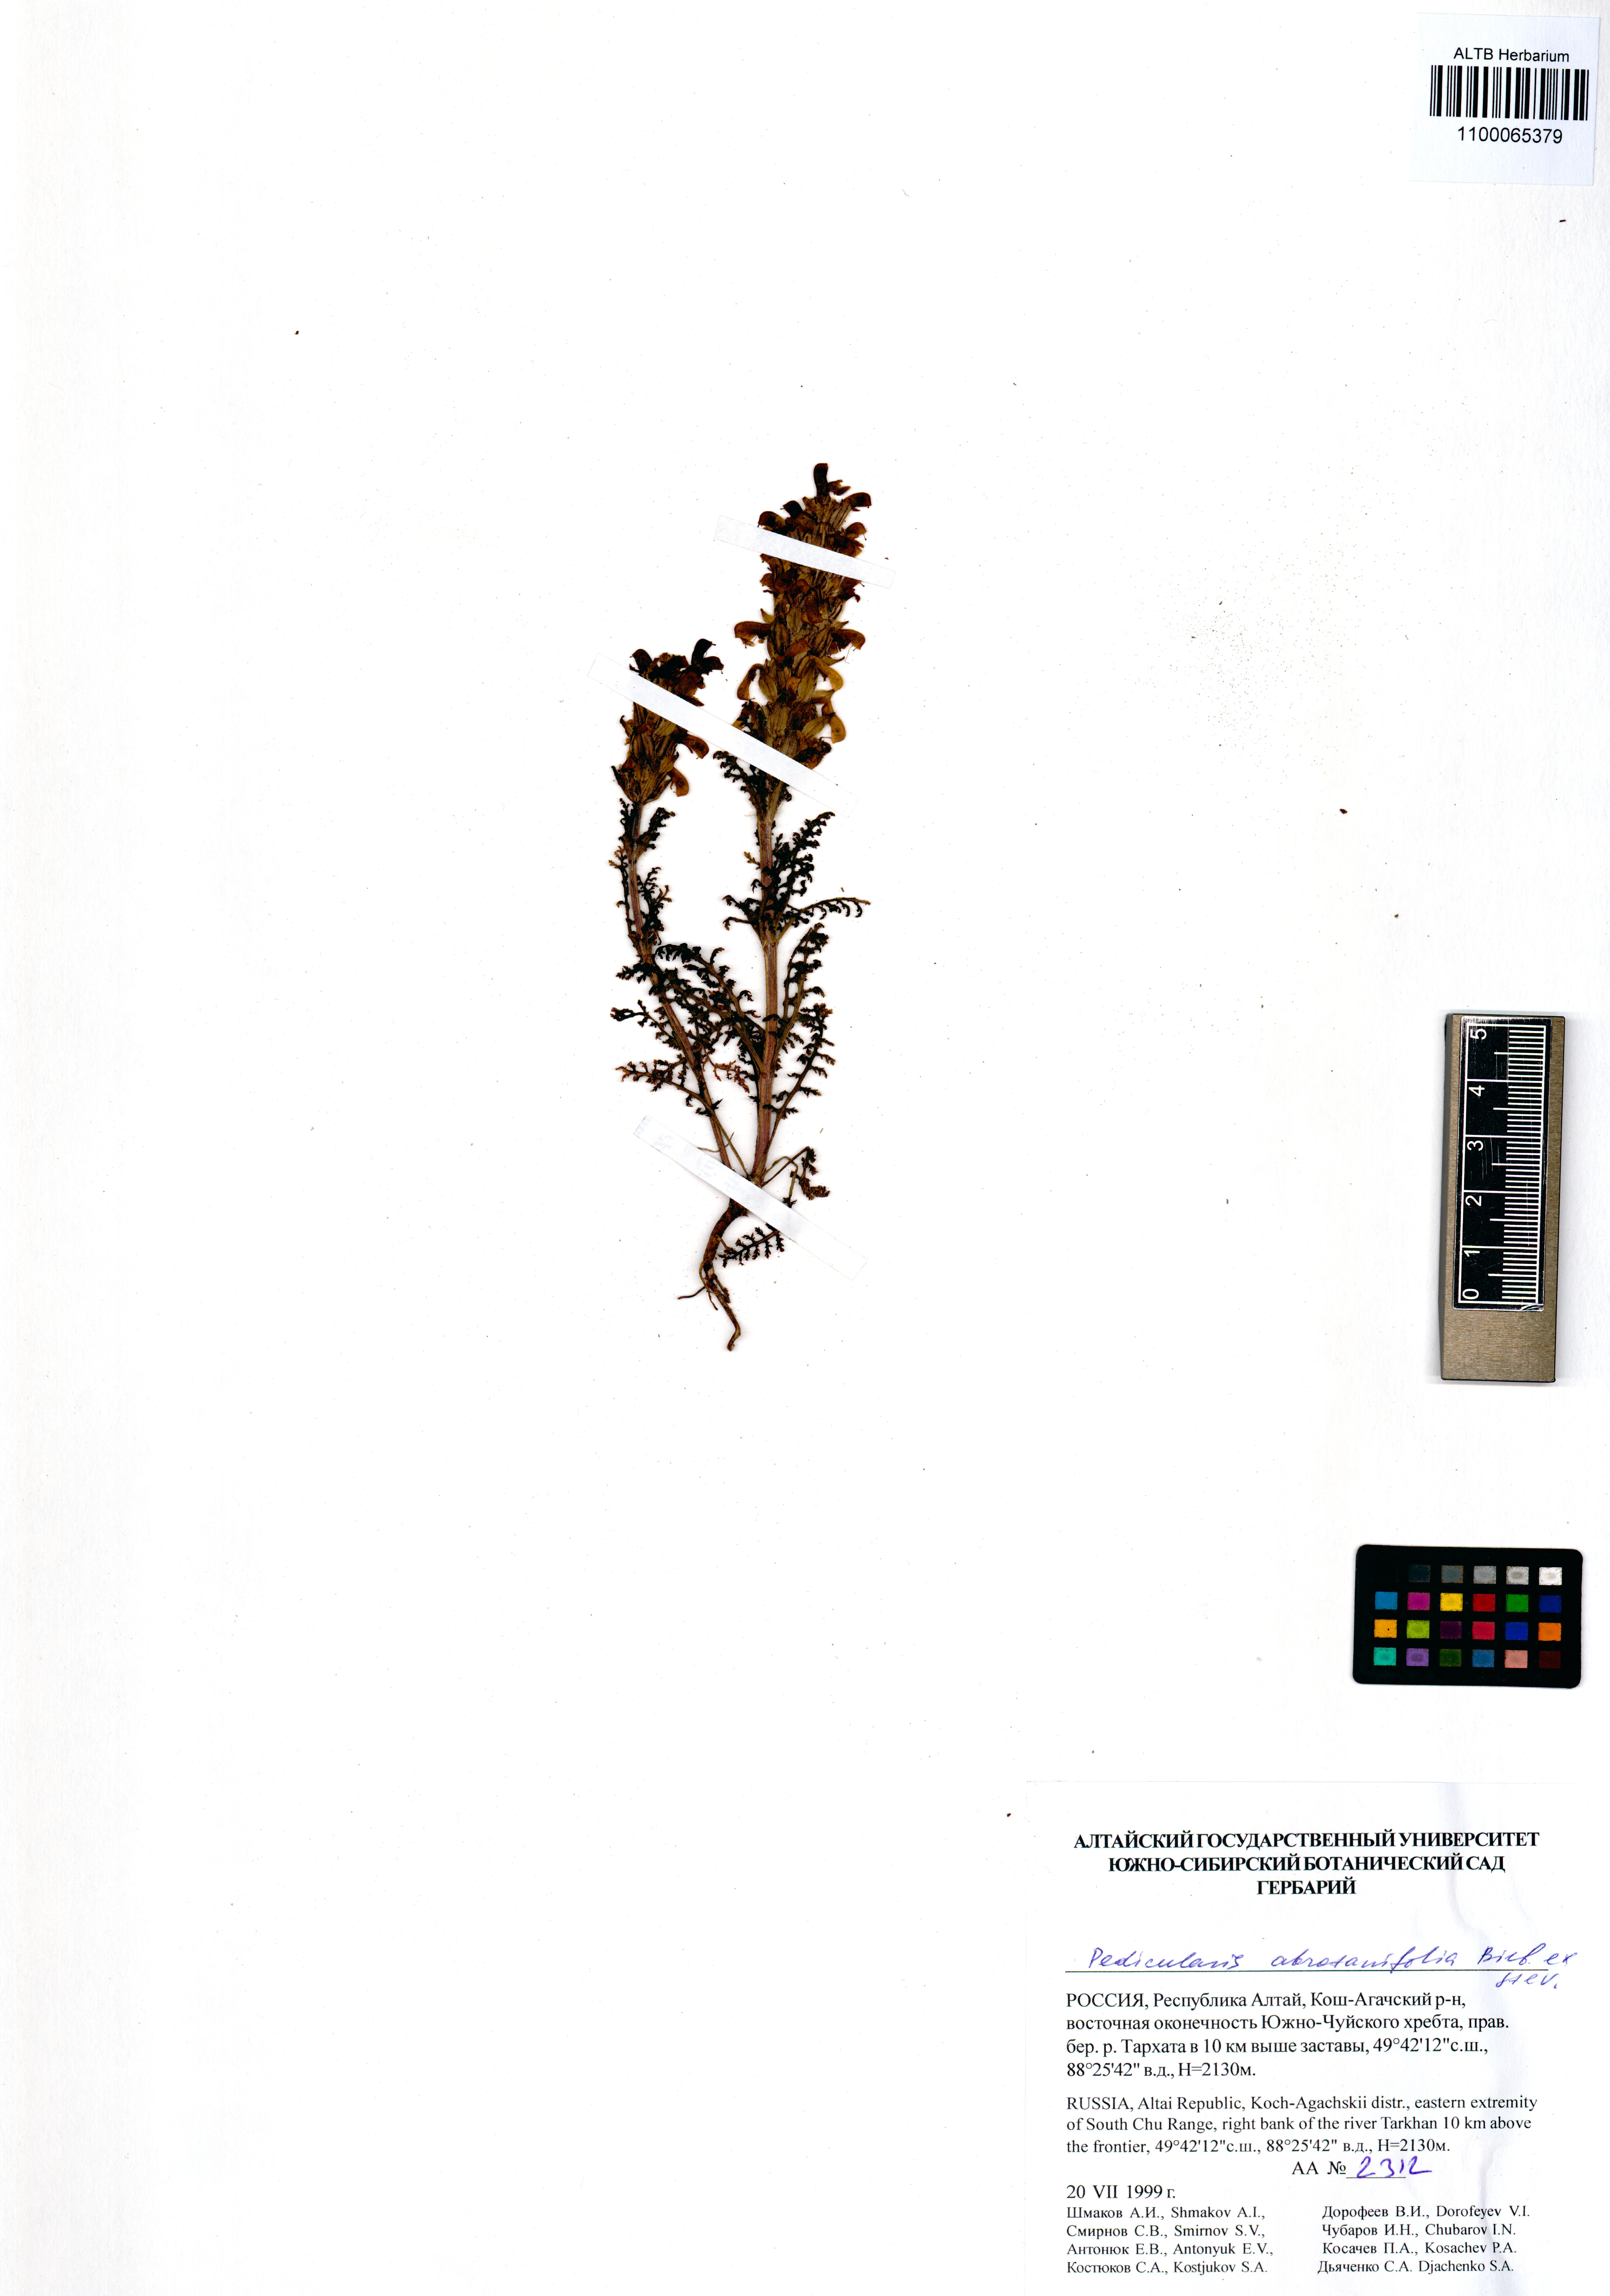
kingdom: Plantae
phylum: Tracheophyta
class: Magnoliopsida
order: Lamiales
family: Orobanchaceae
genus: Pedicularis
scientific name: Pedicularis abrotanifolia
